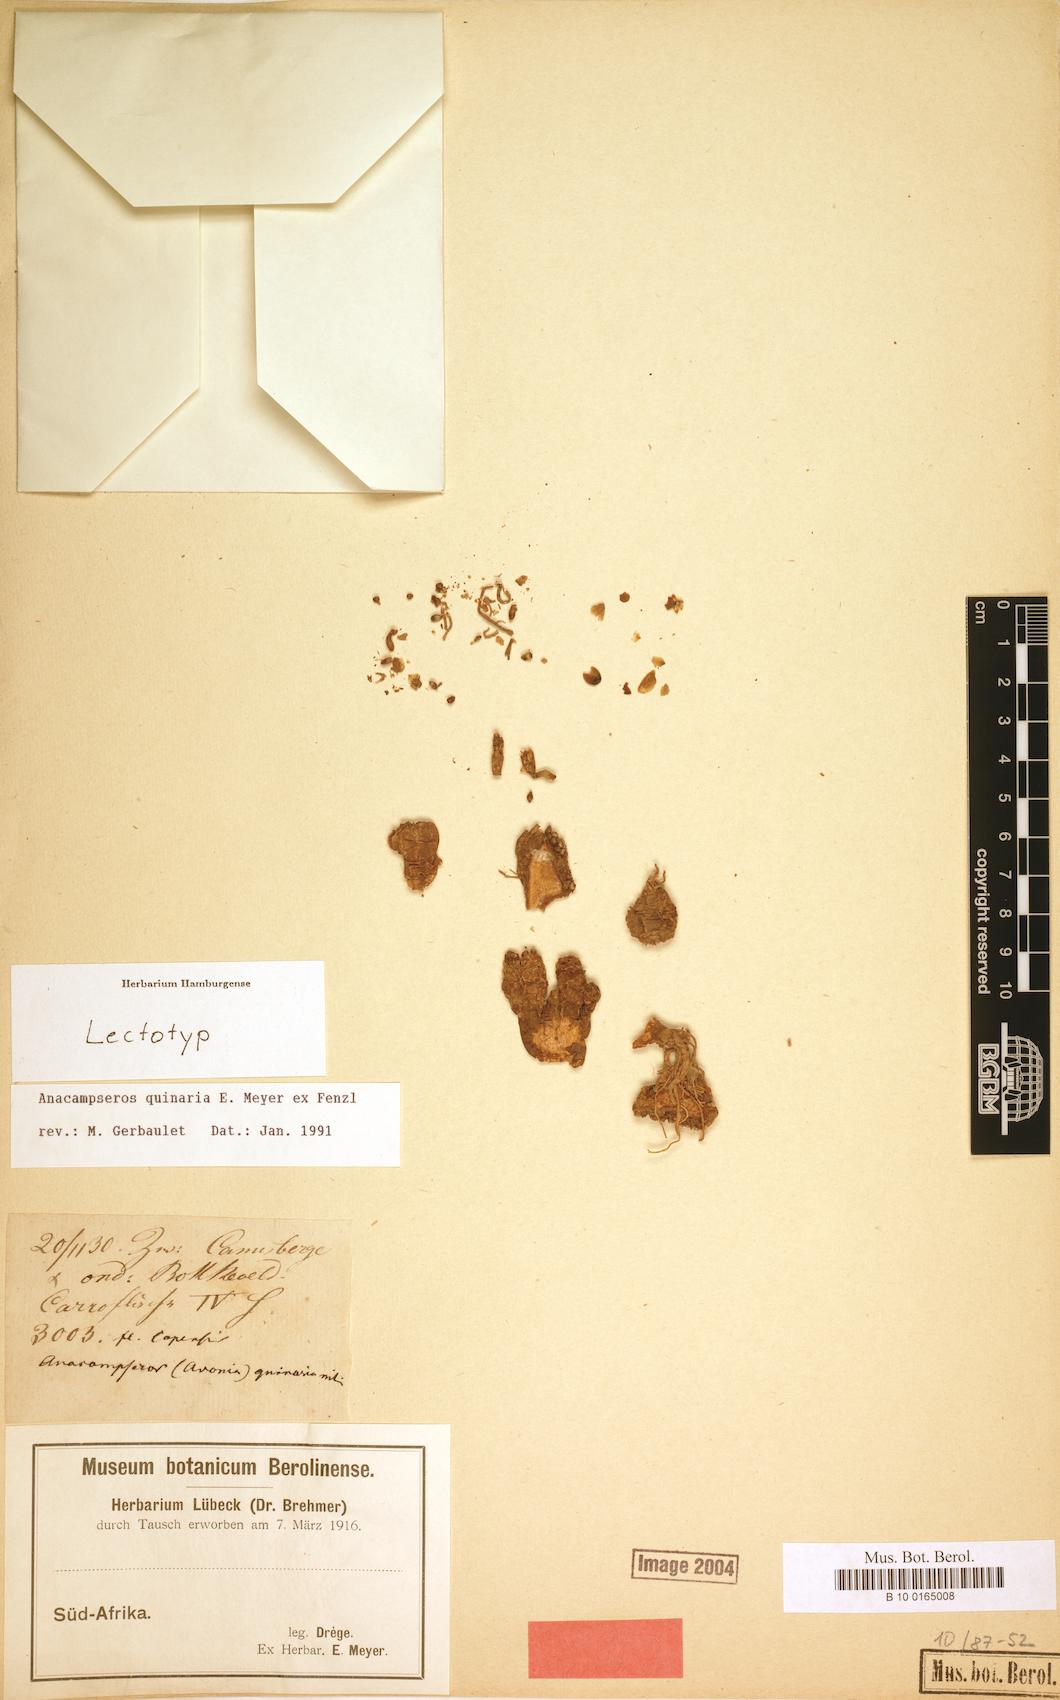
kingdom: Plantae
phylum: Tracheophyta
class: Magnoliopsida
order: Caryophyllales
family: Anacampserotaceae
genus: Avonia
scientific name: Avonia quinaria
